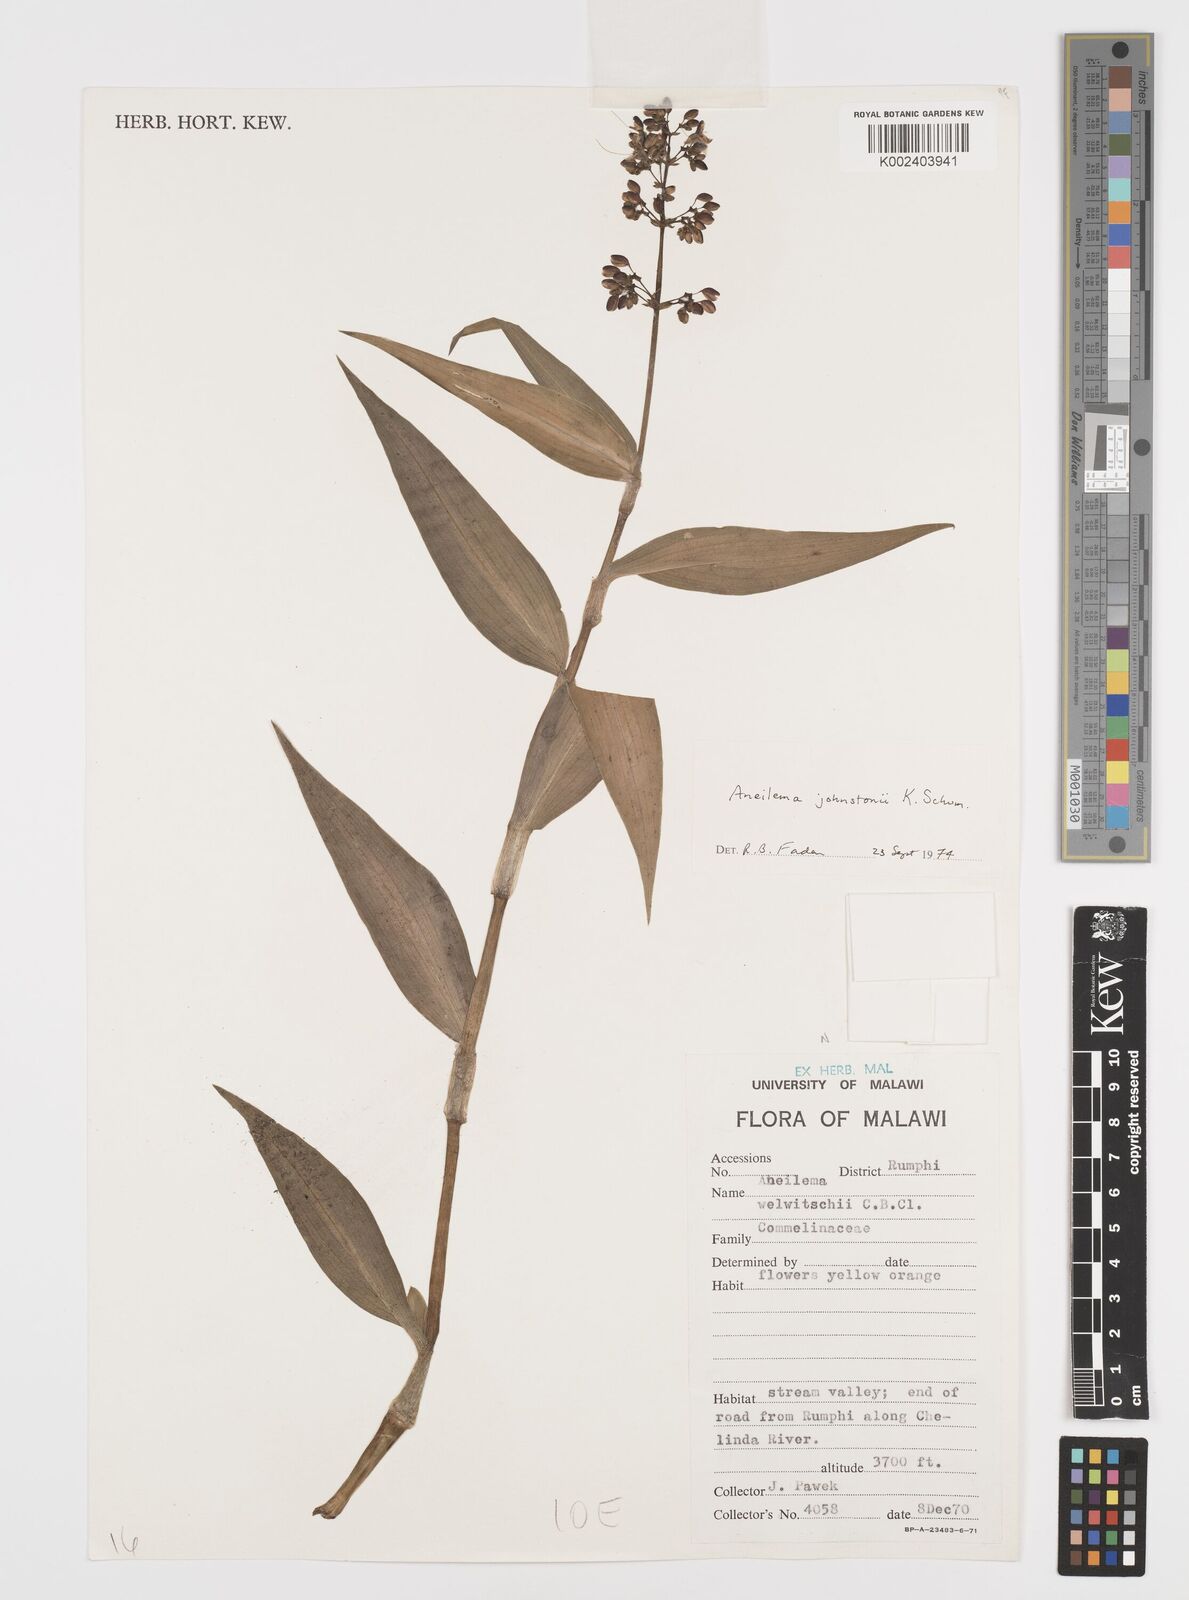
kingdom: Plantae
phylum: Tracheophyta
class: Liliopsida
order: Commelinales
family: Commelinaceae
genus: Aneilema
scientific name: Aneilema johnstonii
